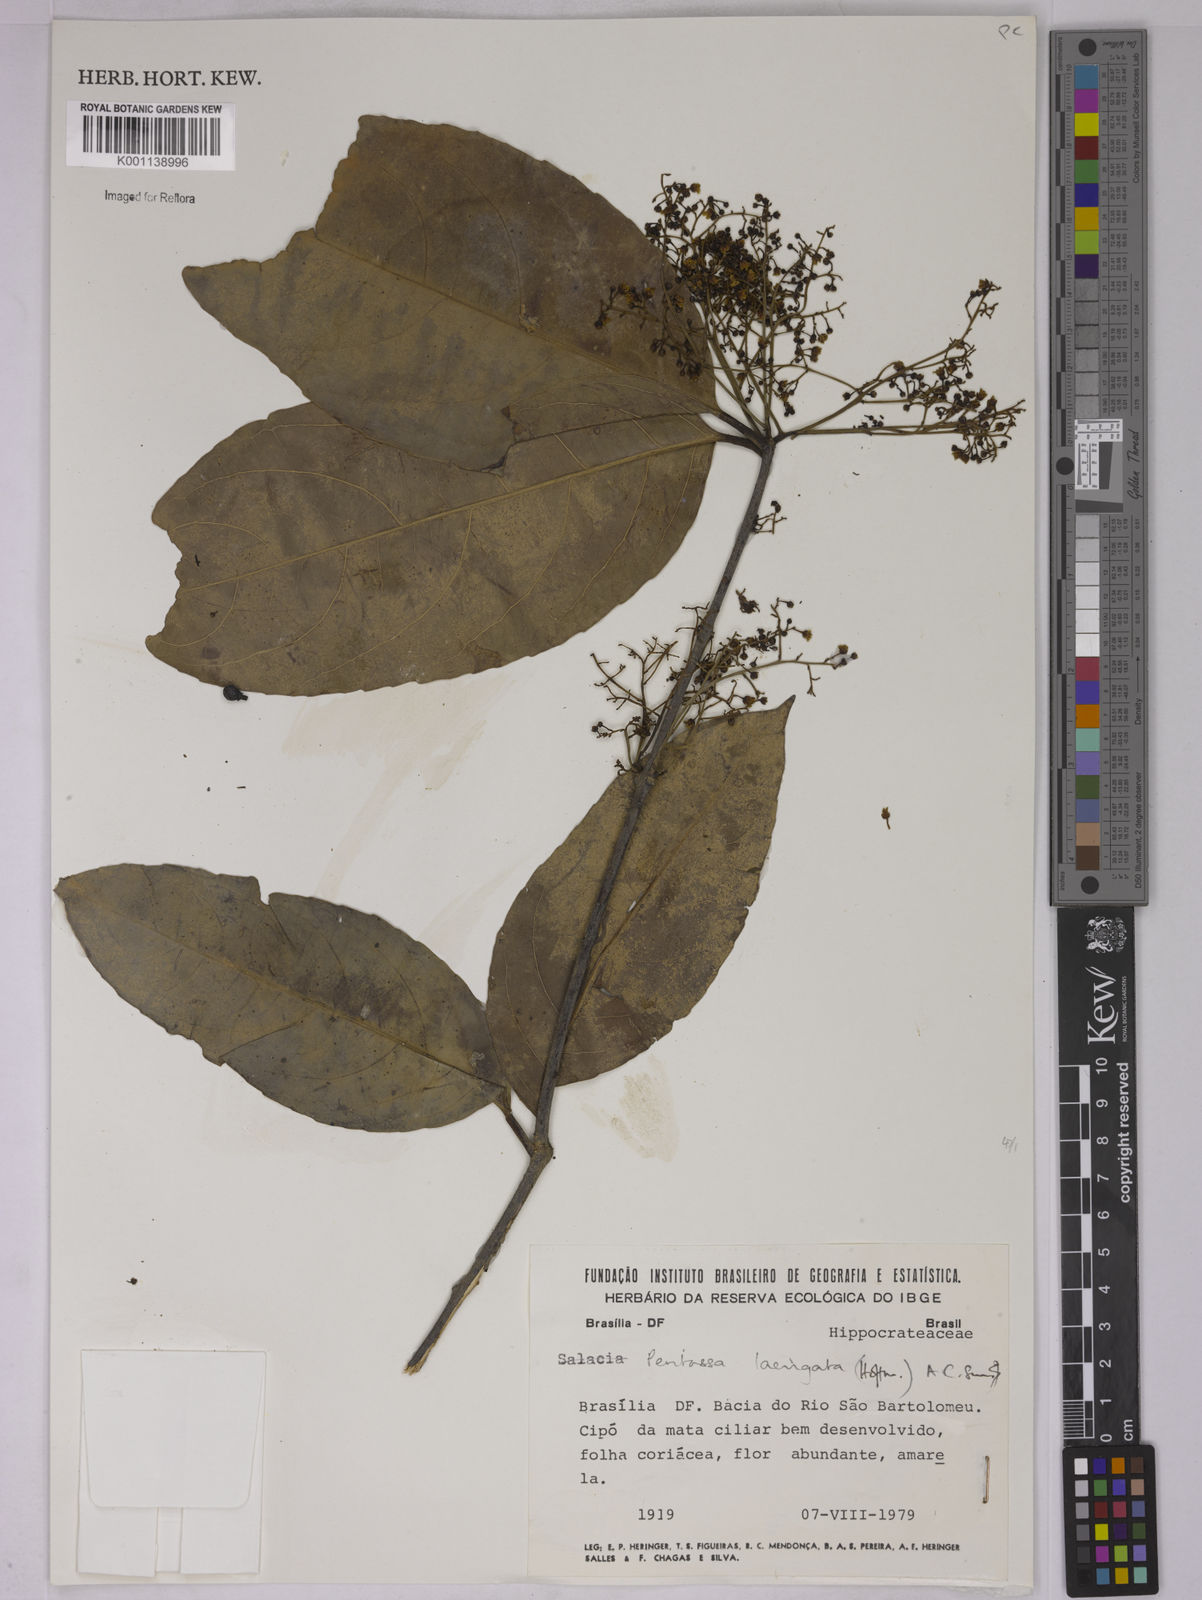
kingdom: Plantae
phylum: Tracheophyta
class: Magnoliopsida
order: Celastrales
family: Celastraceae
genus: Peritassa
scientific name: Peritassa laevigata
